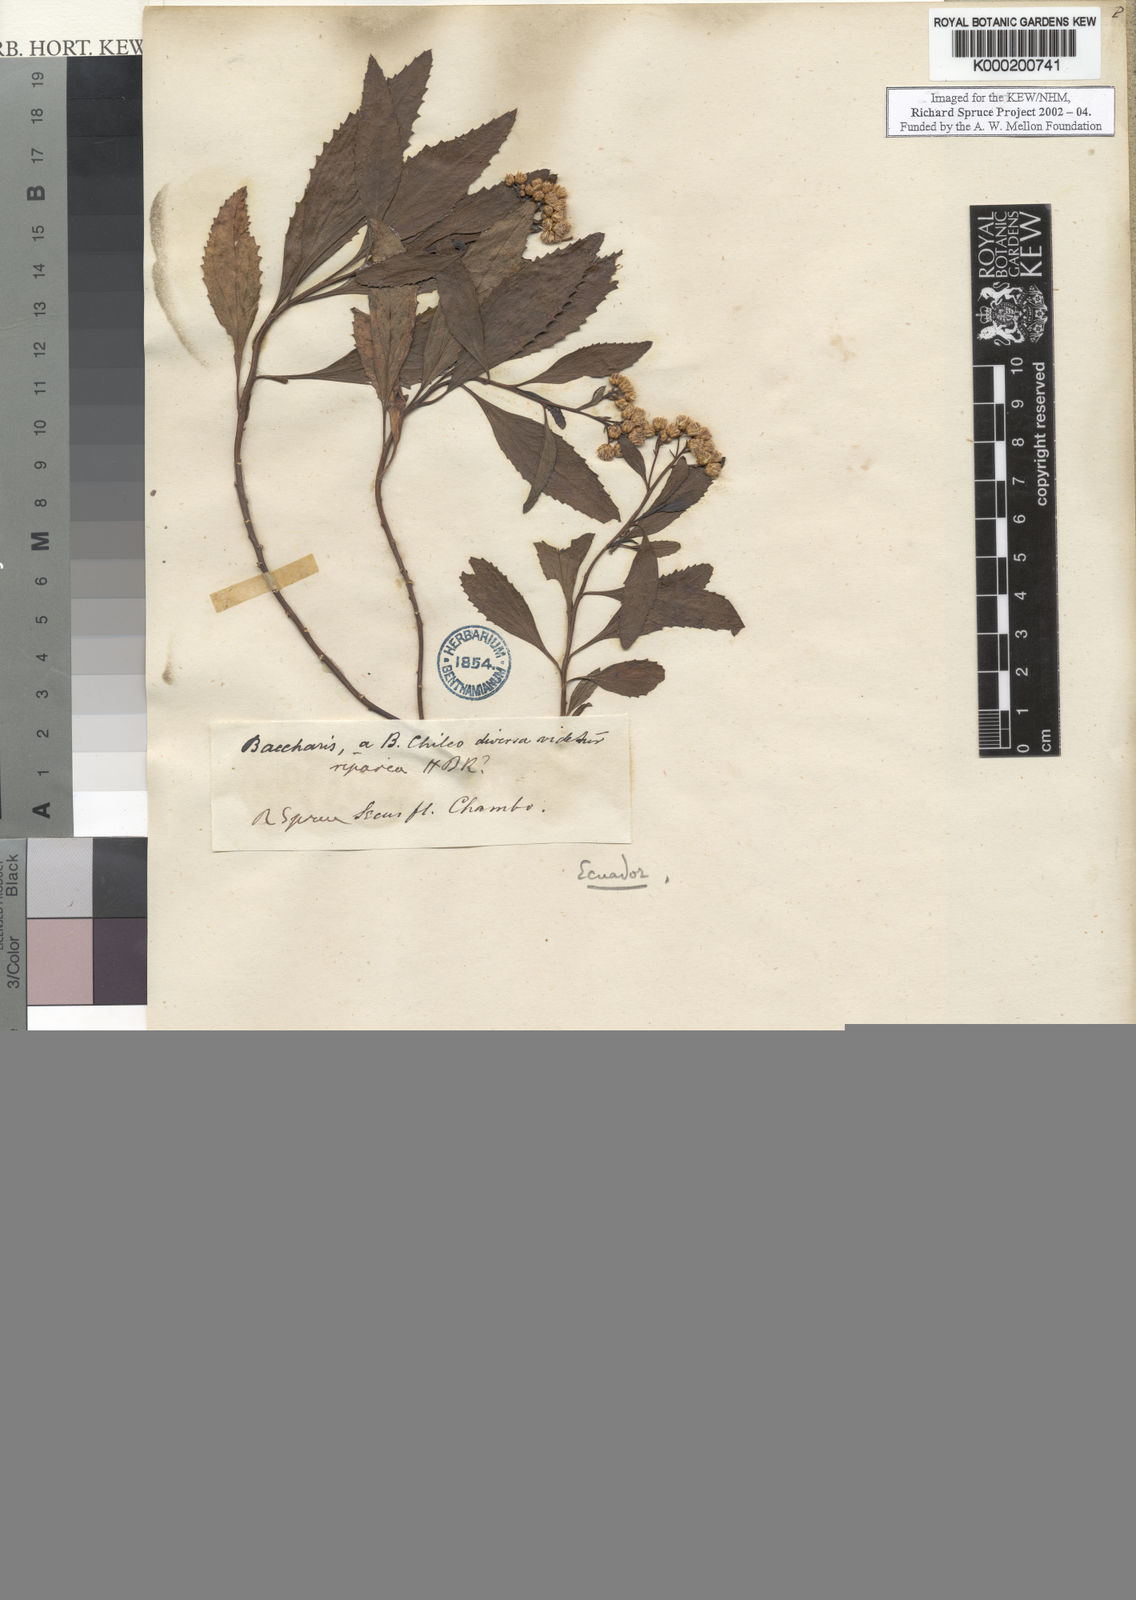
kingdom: Plantae
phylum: Tracheophyta
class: Magnoliopsida
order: Asterales
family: Asteraceae
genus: Baccharis
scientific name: Baccharis
